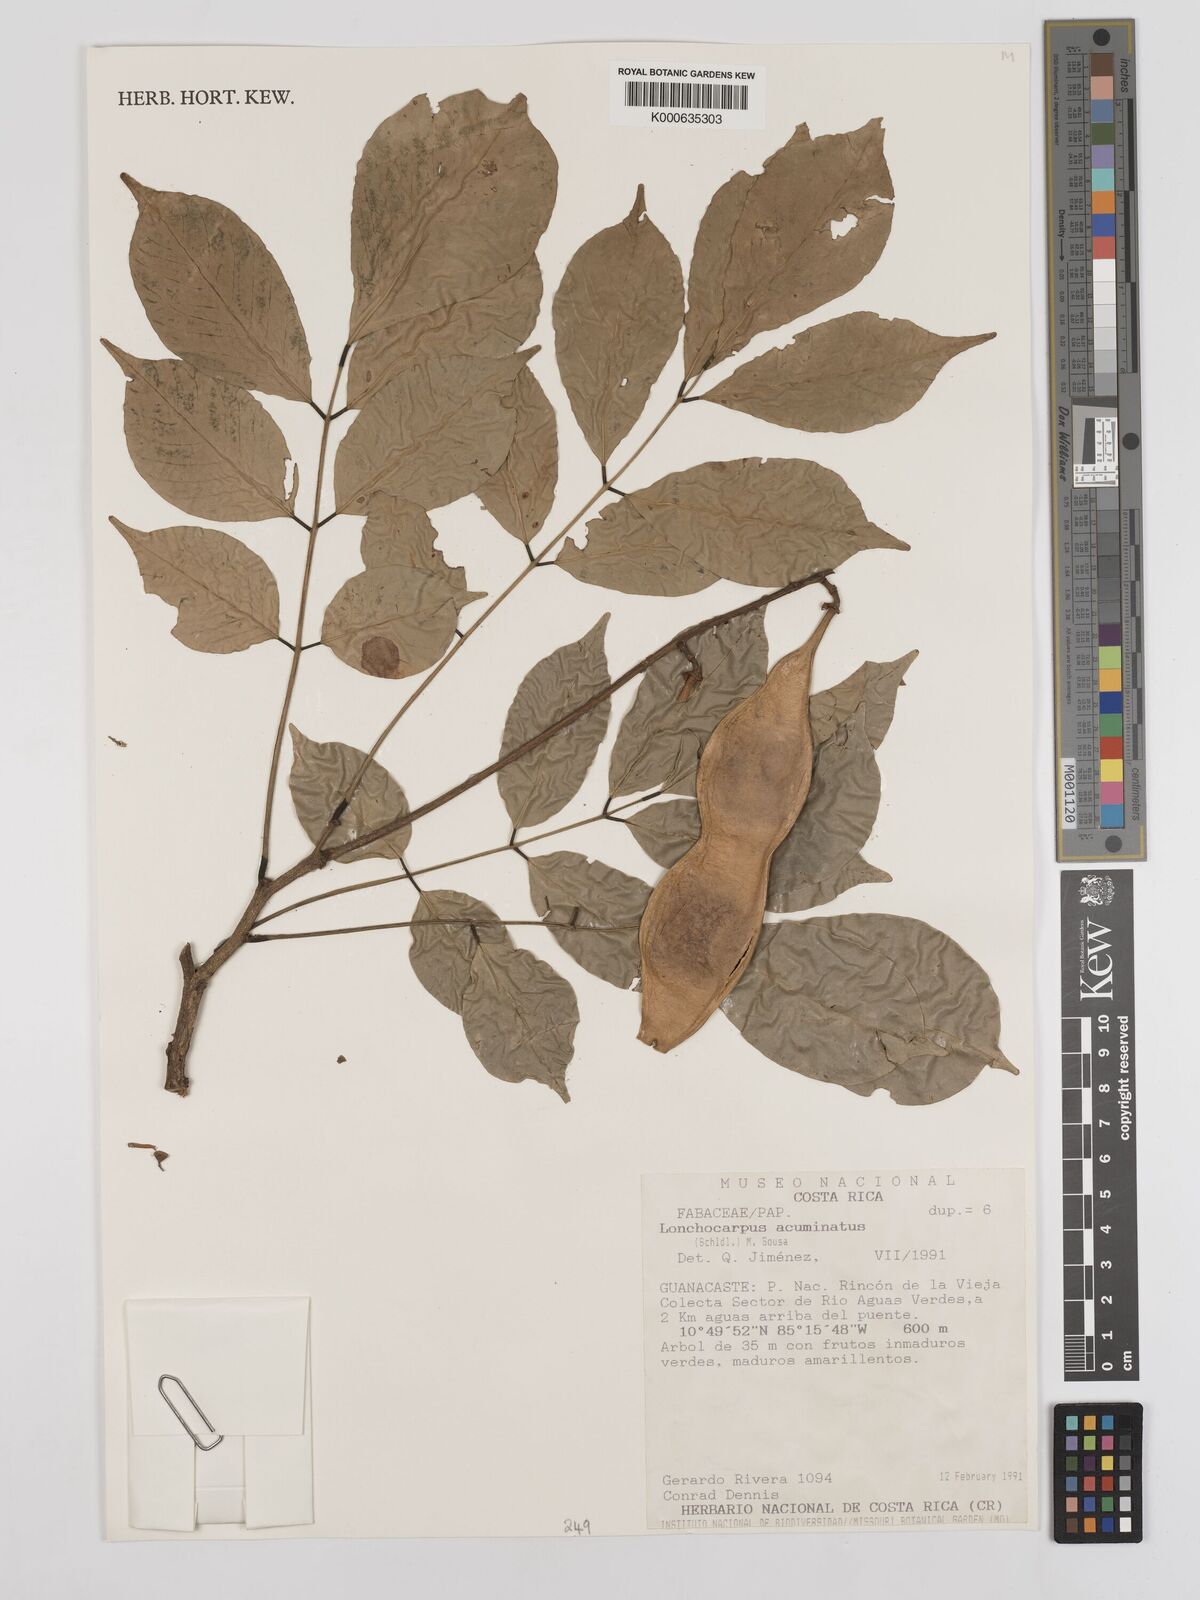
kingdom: Plantae
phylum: Tracheophyta
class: Magnoliopsida
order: Fabales
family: Fabaceae
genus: Lonchocarpus
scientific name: Lonchocarpus acuminatus
